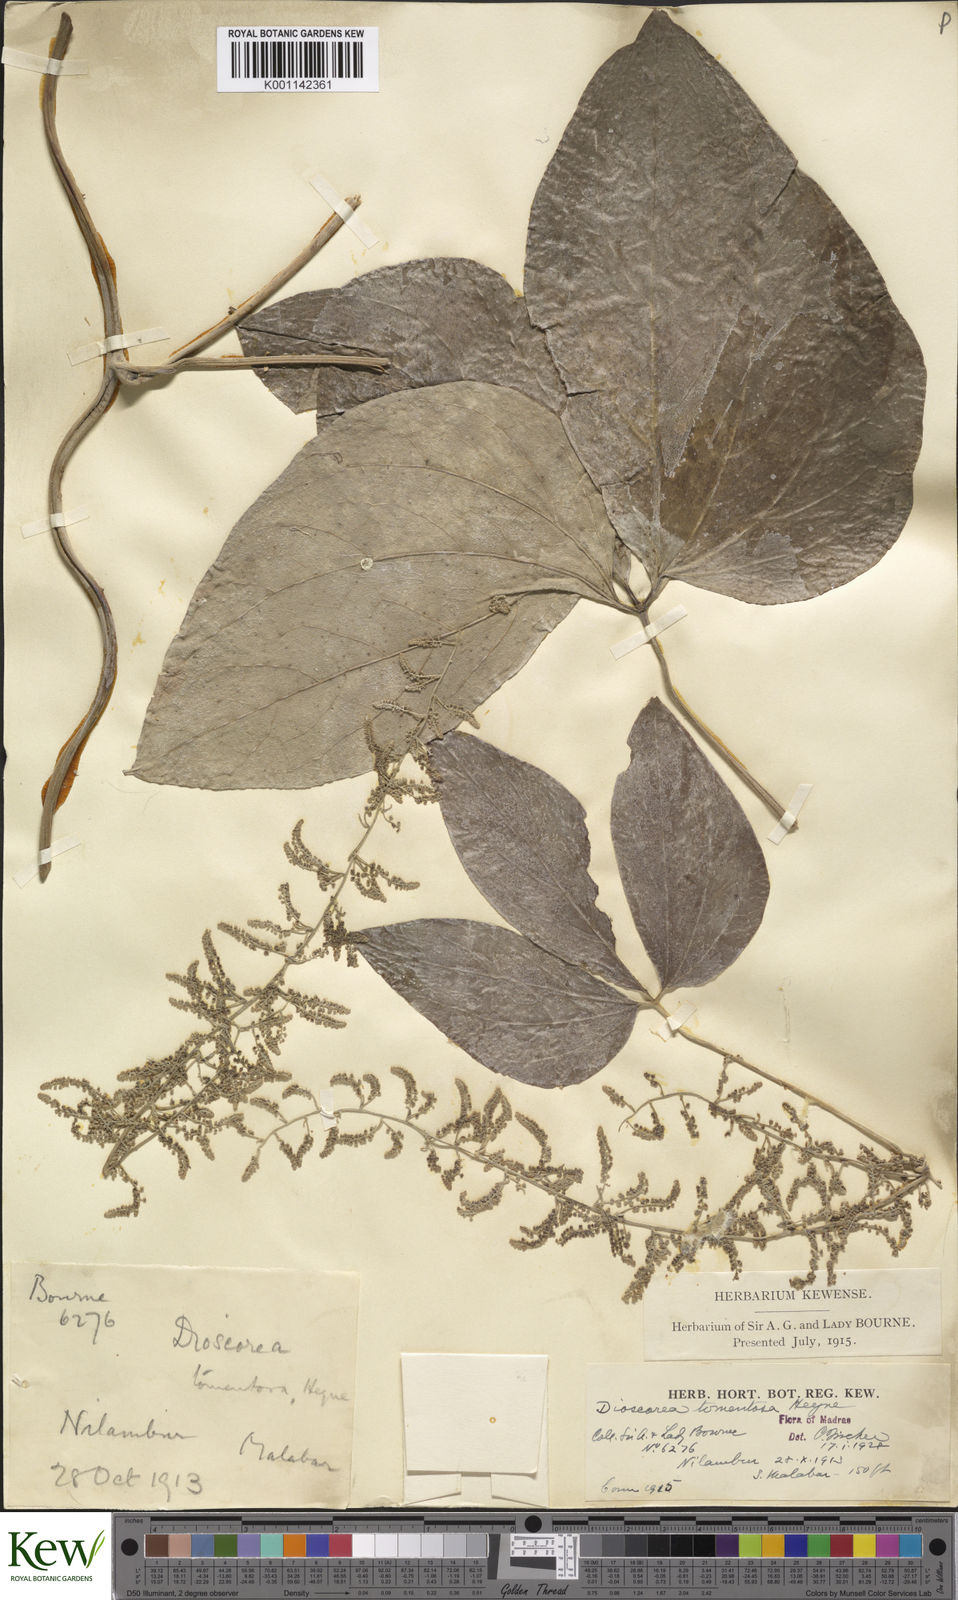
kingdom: Plantae
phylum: Tracheophyta
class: Liliopsida
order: Dioscoreales
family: Dioscoreaceae
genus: Dioscorea
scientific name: Dioscorea
